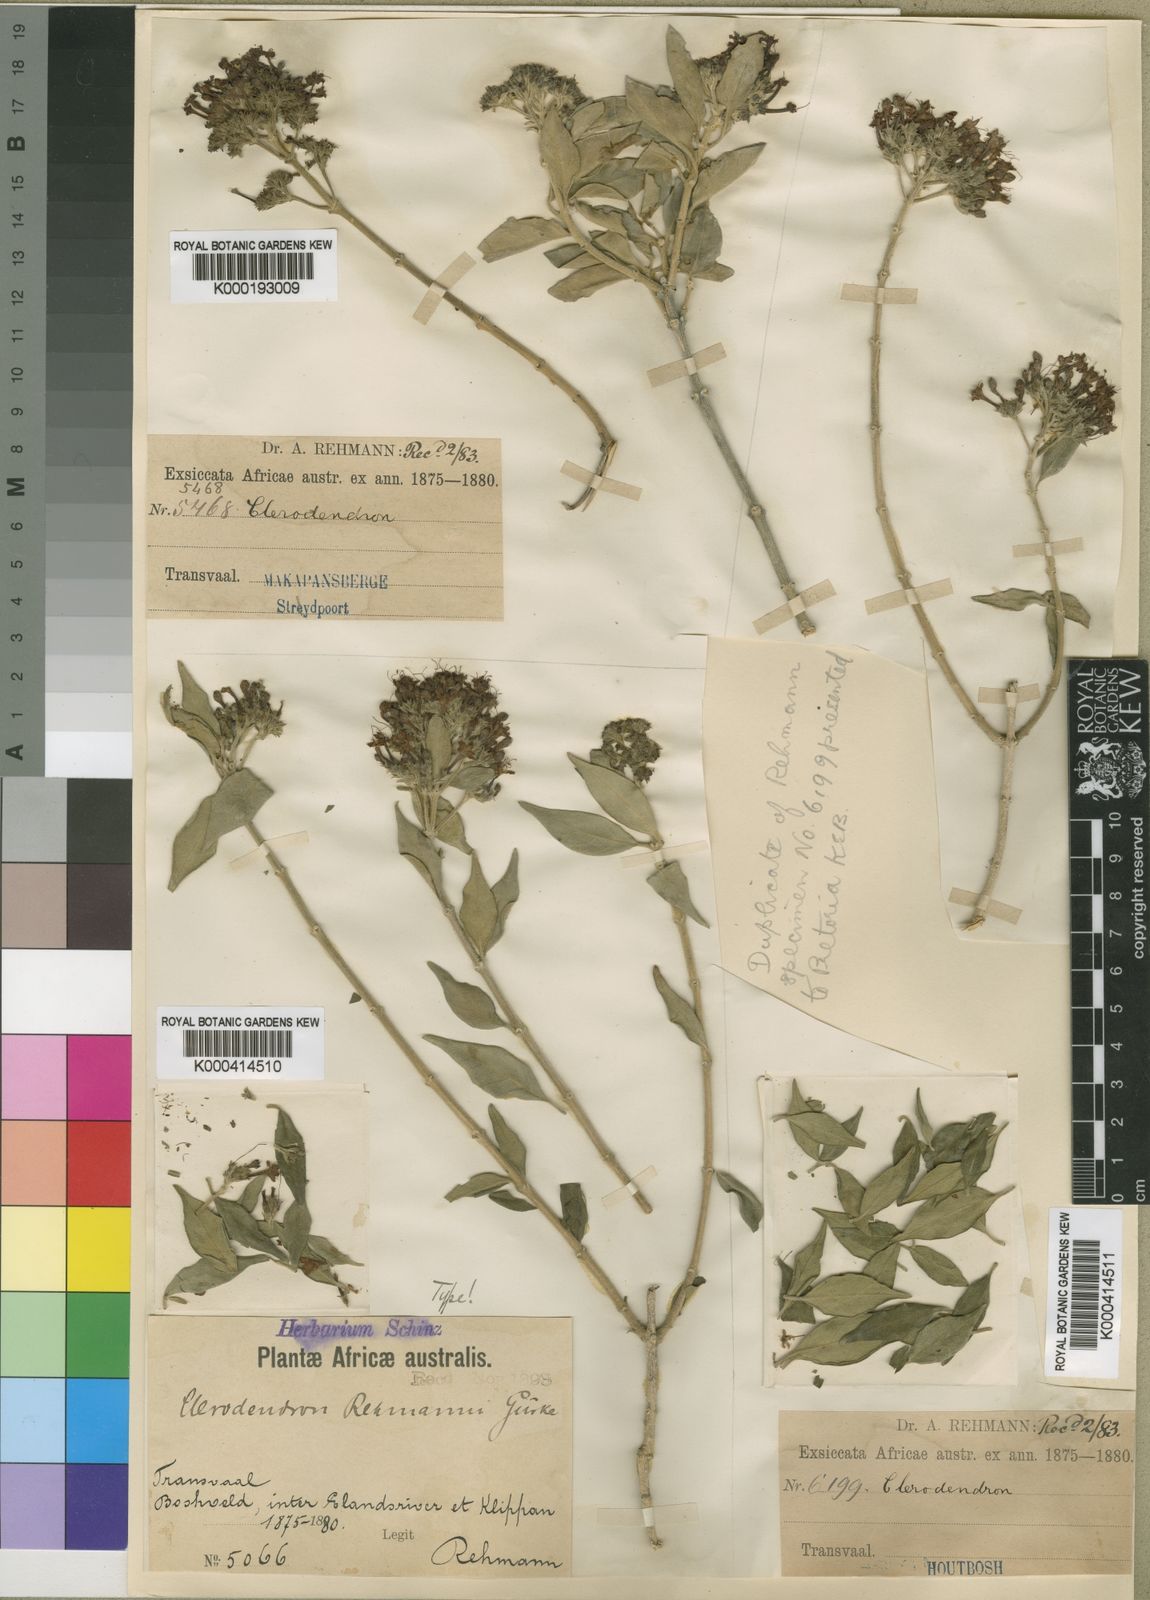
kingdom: Plantae
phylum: Tracheophyta
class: Magnoliopsida
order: Lamiales
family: Lamiaceae
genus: Clerodendrum
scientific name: Clerodendrum
